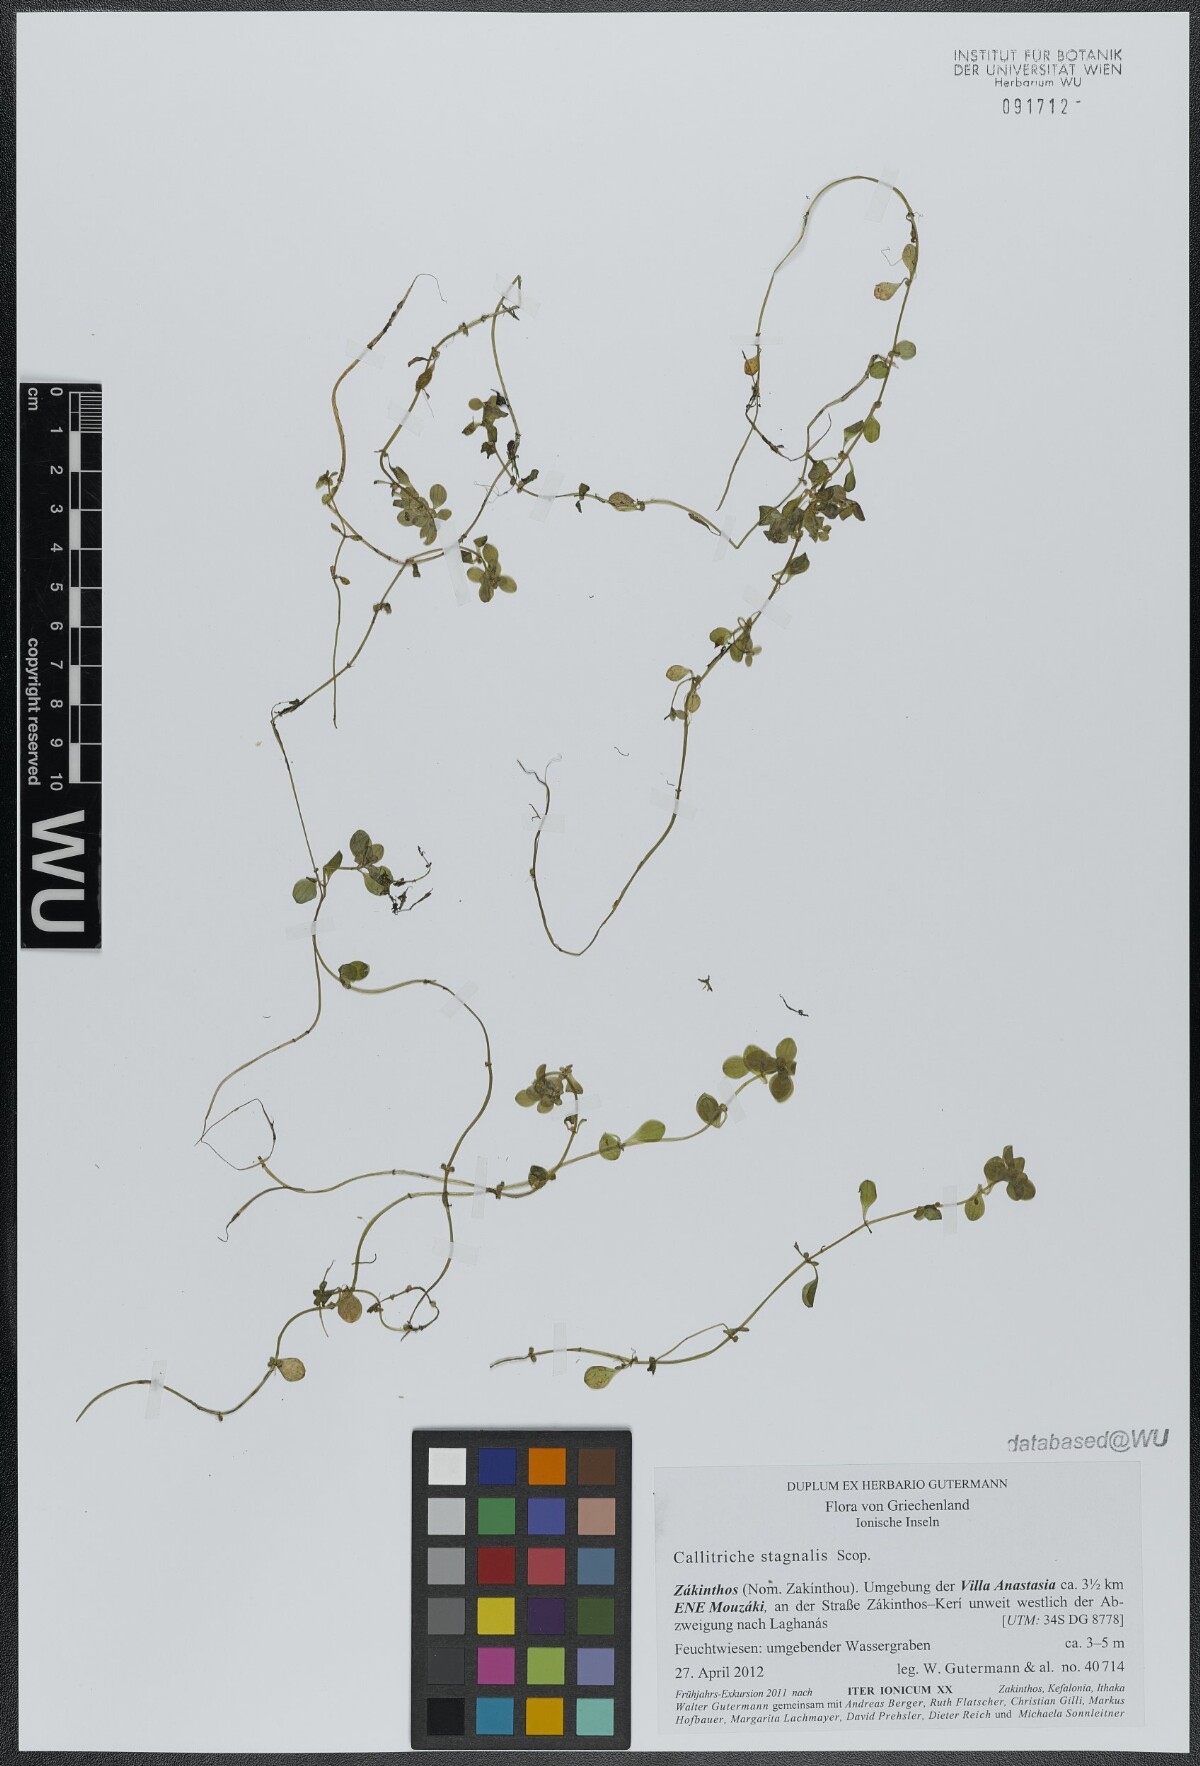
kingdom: Plantae
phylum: Tracheophyta
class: Magnoliopsida
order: Lamiales
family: Plantaginaceae
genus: Callitriche
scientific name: Callitriche stagnalis
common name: Common water-starwort
